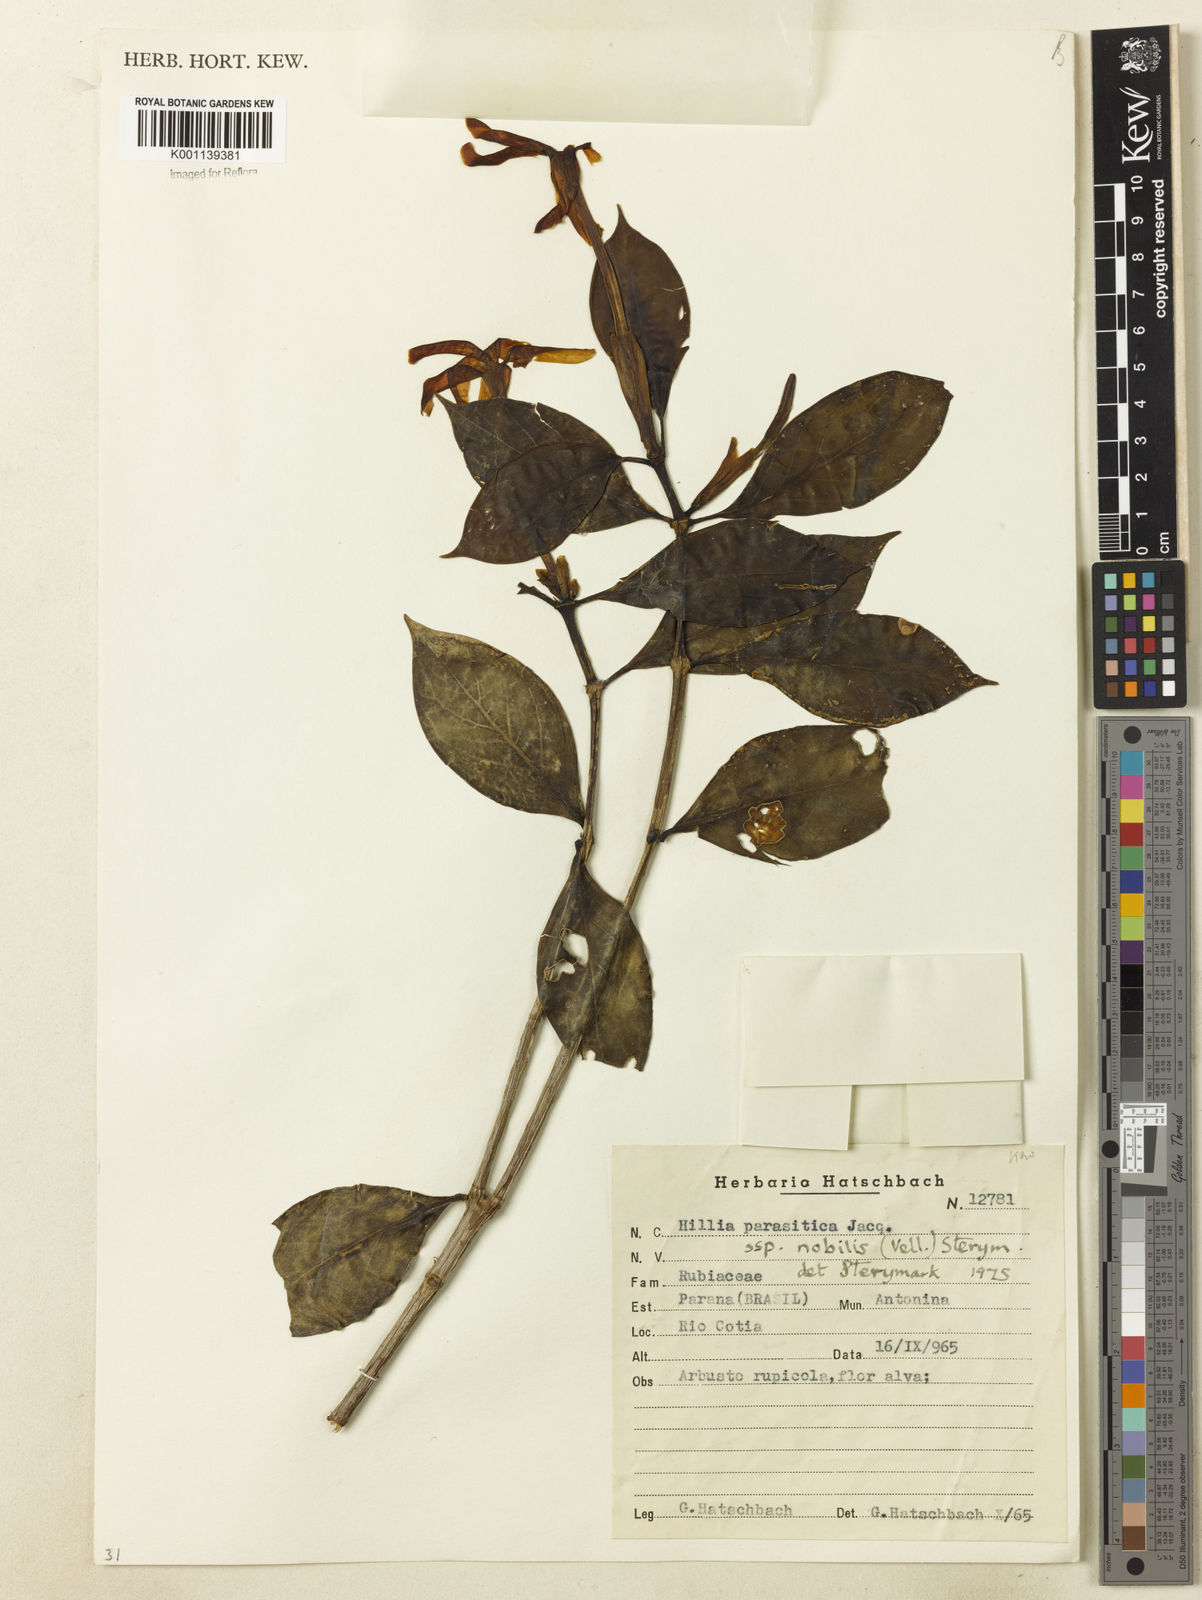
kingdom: Plantae
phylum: Tracheophyta
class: Magnoliopsida
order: Gentianales
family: Rubiaceae
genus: Hillia
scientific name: Hillia parasitica
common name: Morning star
